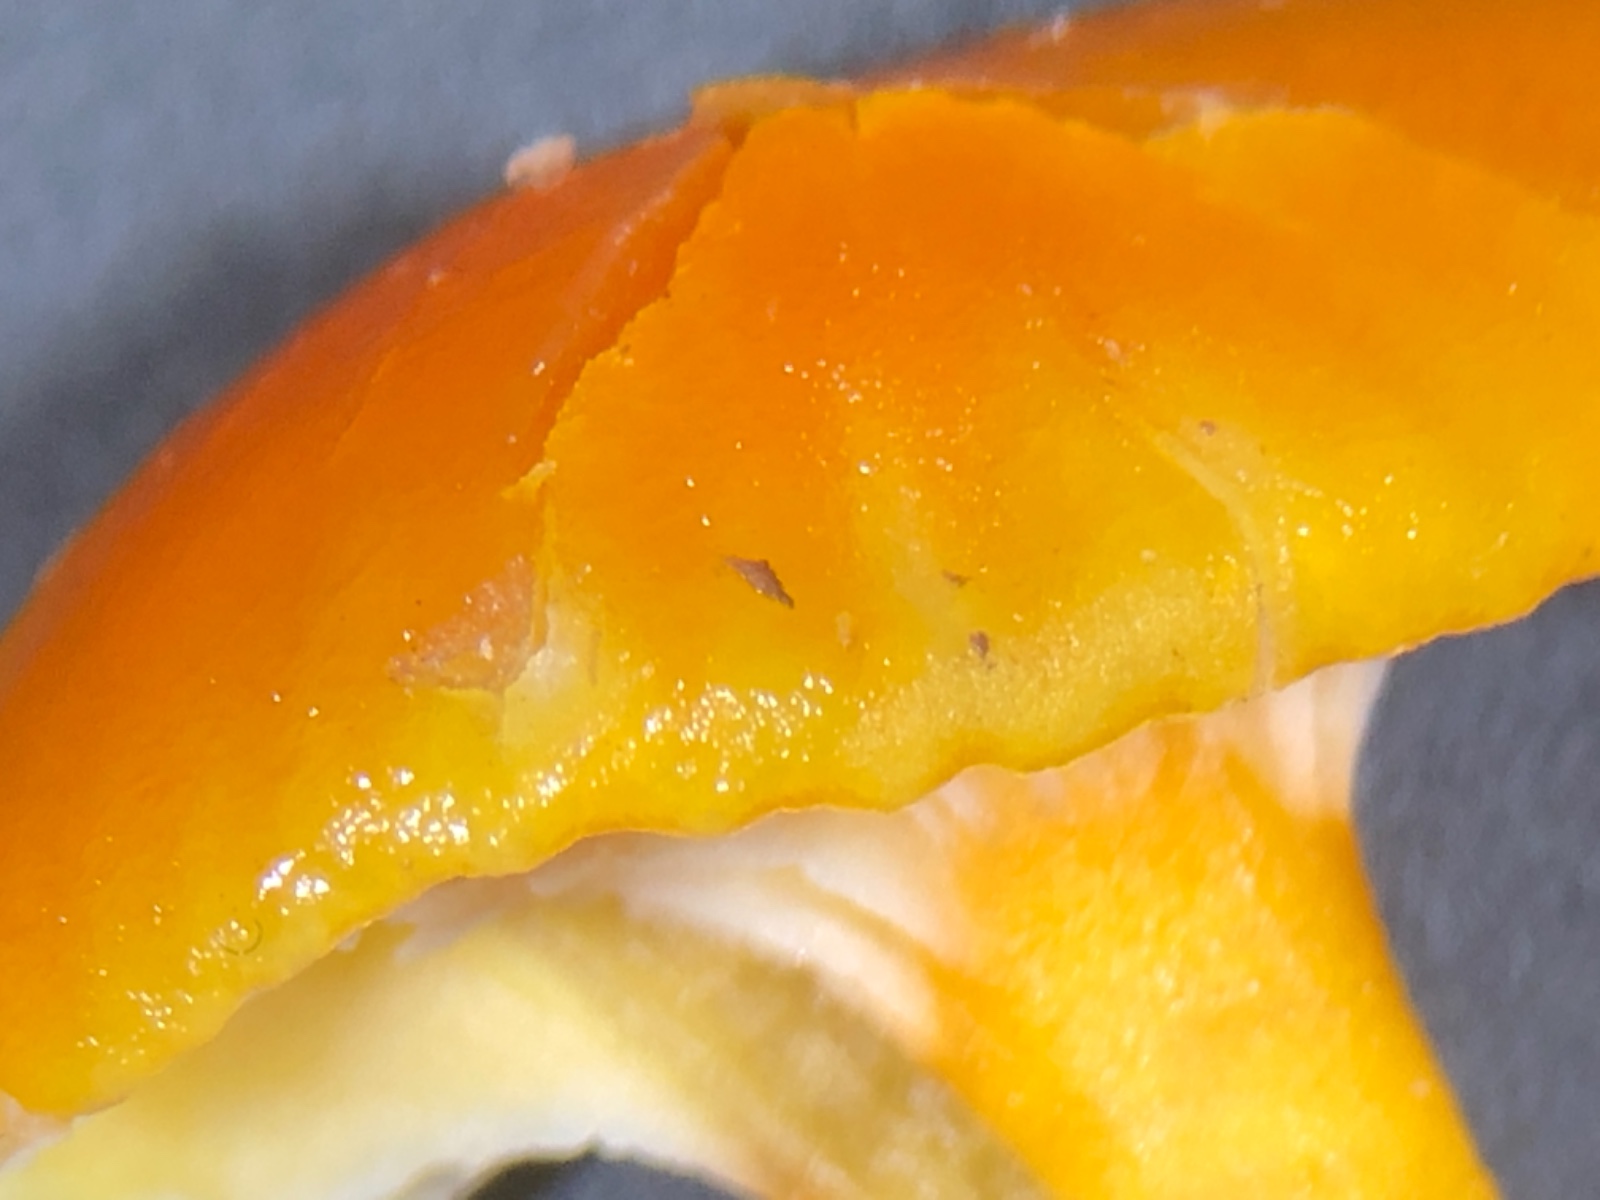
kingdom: Fungi
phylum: Basidiomycota
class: Agaricomycetes
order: Agaricales
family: Hygrophoraceae
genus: Hygrocybe
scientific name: Hygrocybe ceracea
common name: voksgul vokshat
